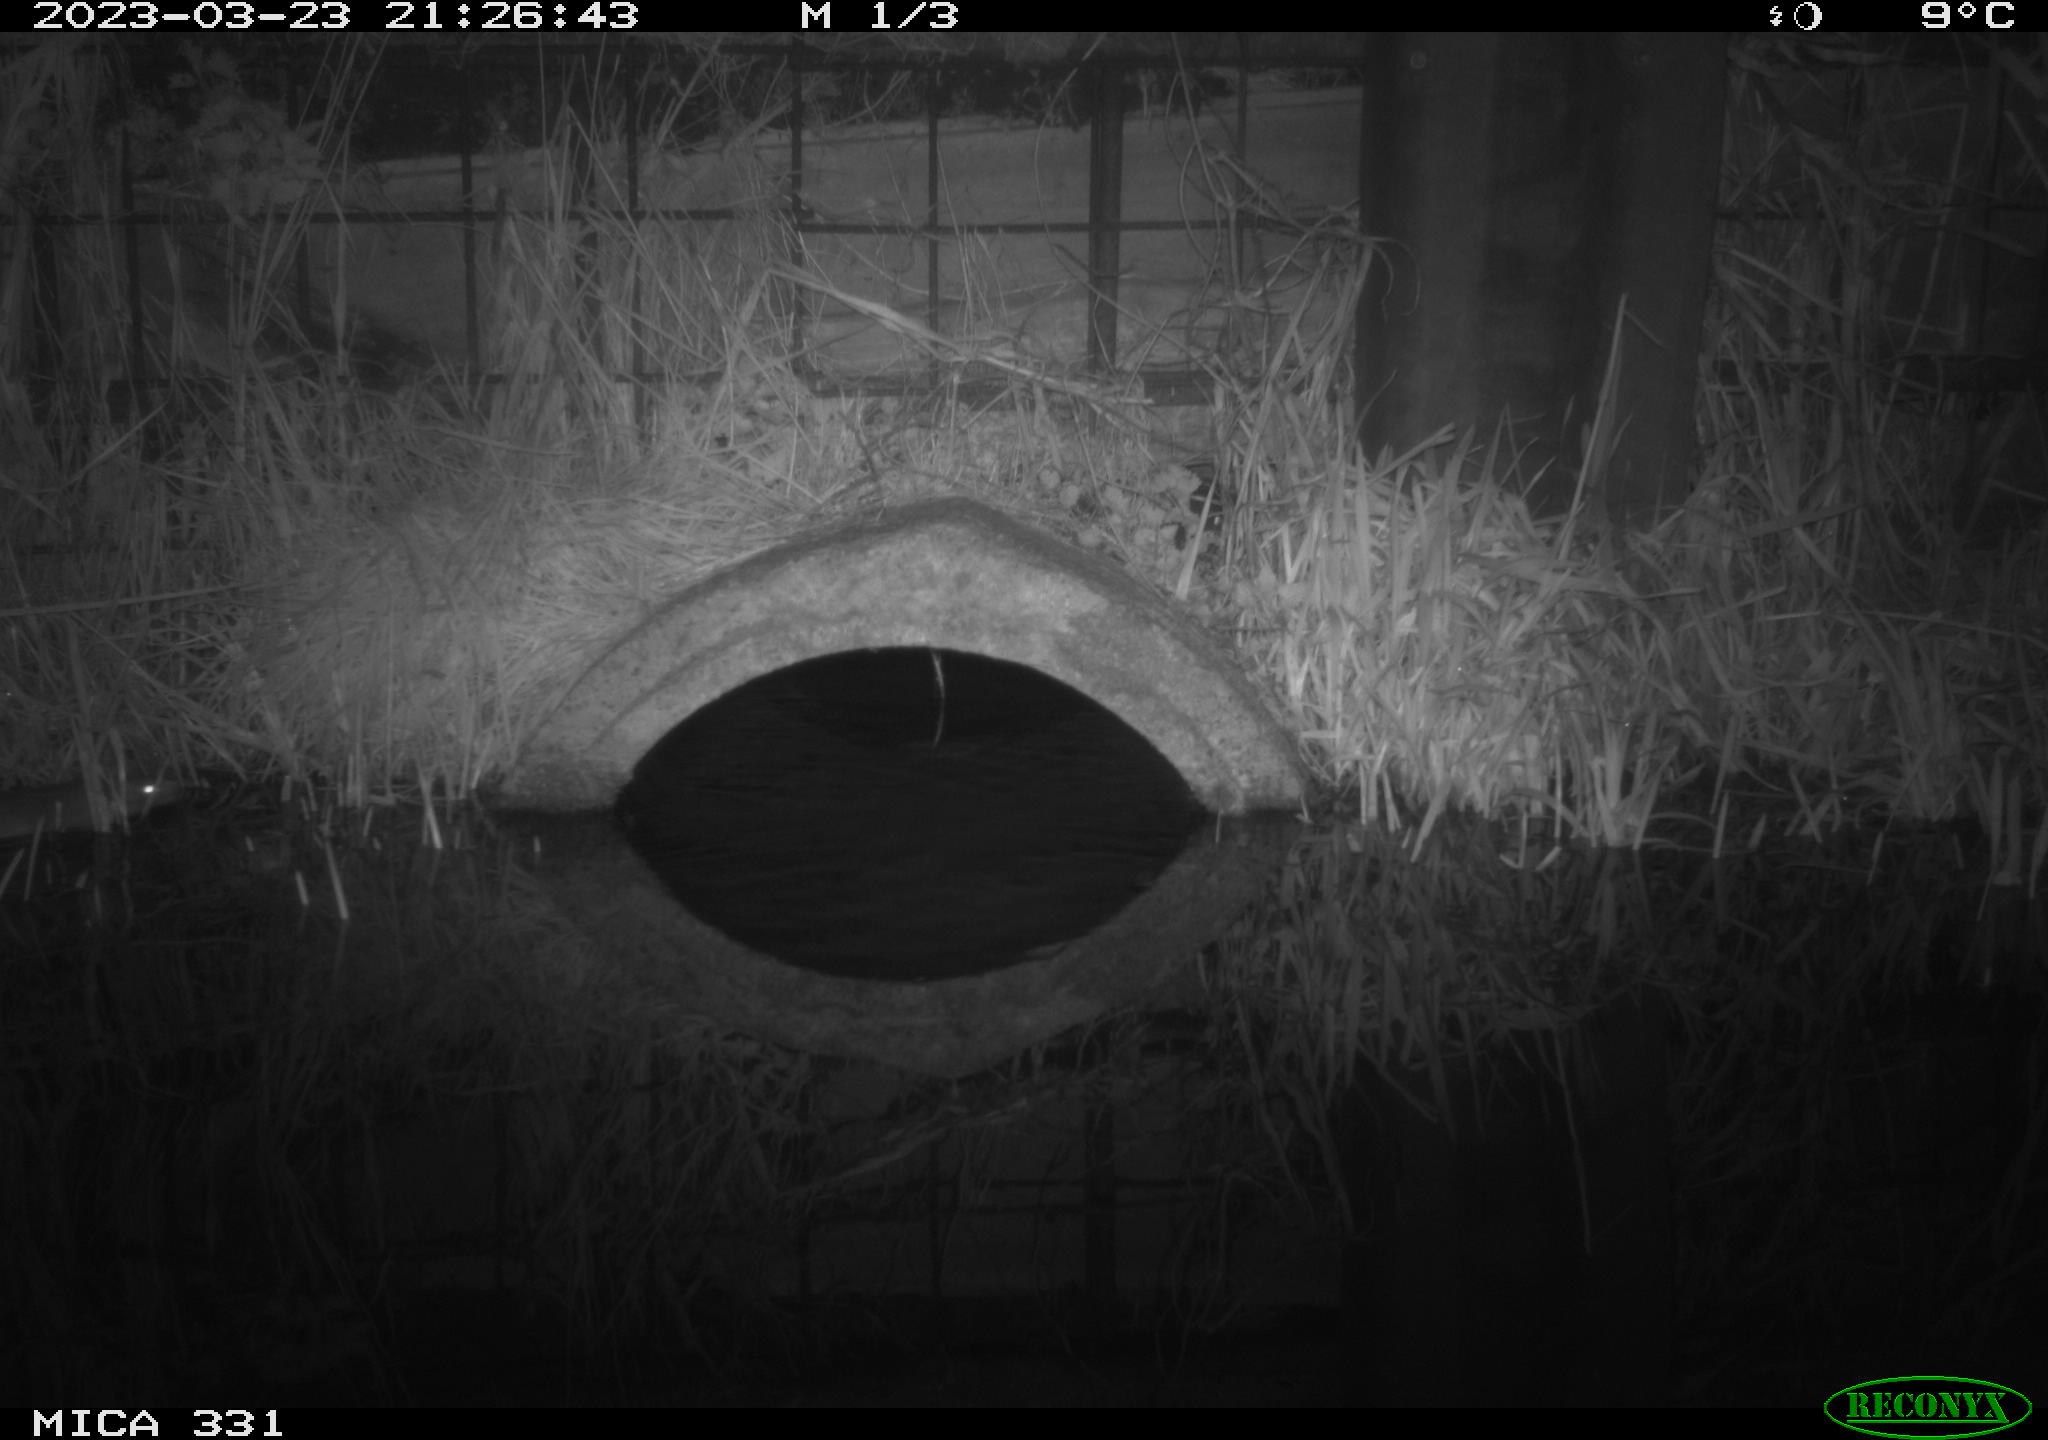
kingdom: Animalia
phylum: Chordata
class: Mammalia
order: Rodentia
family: Muridae
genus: Rattus
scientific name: Rattus norvegicus
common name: Brown rat
